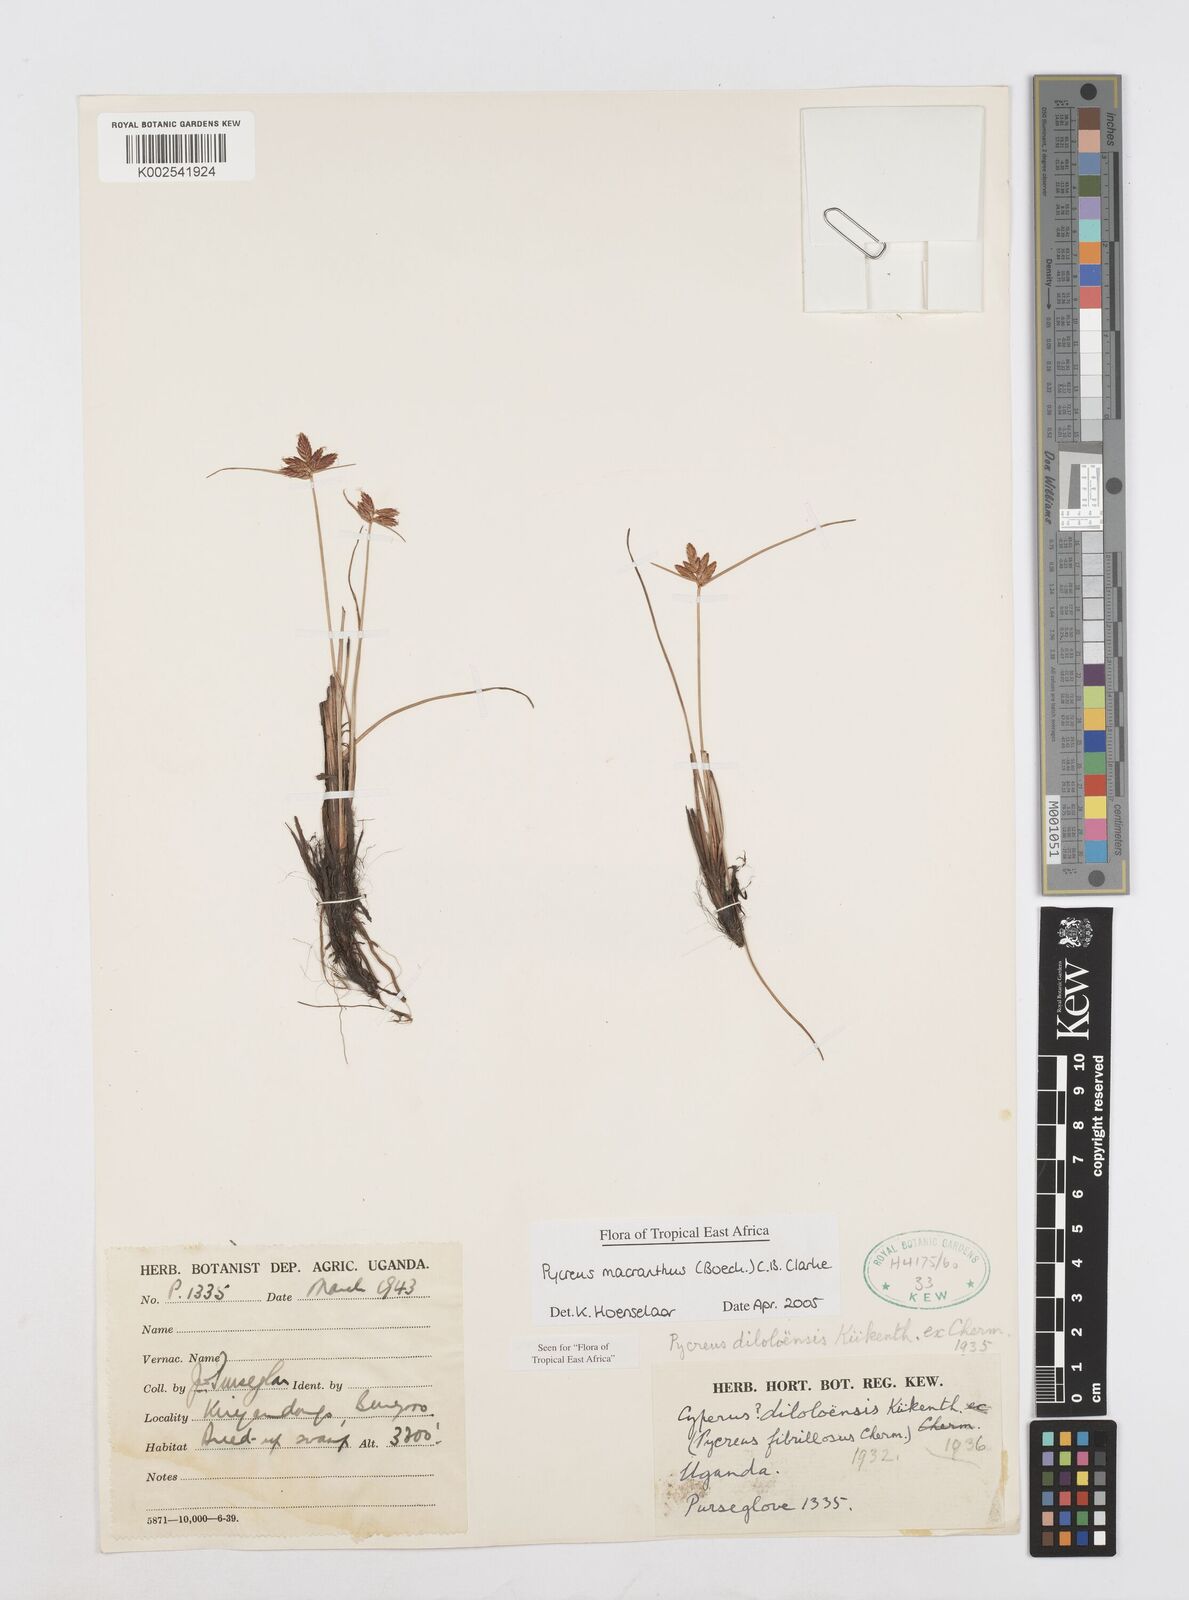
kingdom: Plantae
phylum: Tracheophyta
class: Liliopsida
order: Poales
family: Cyperaceae
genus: Cyperus
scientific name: Cyperus nigricans
